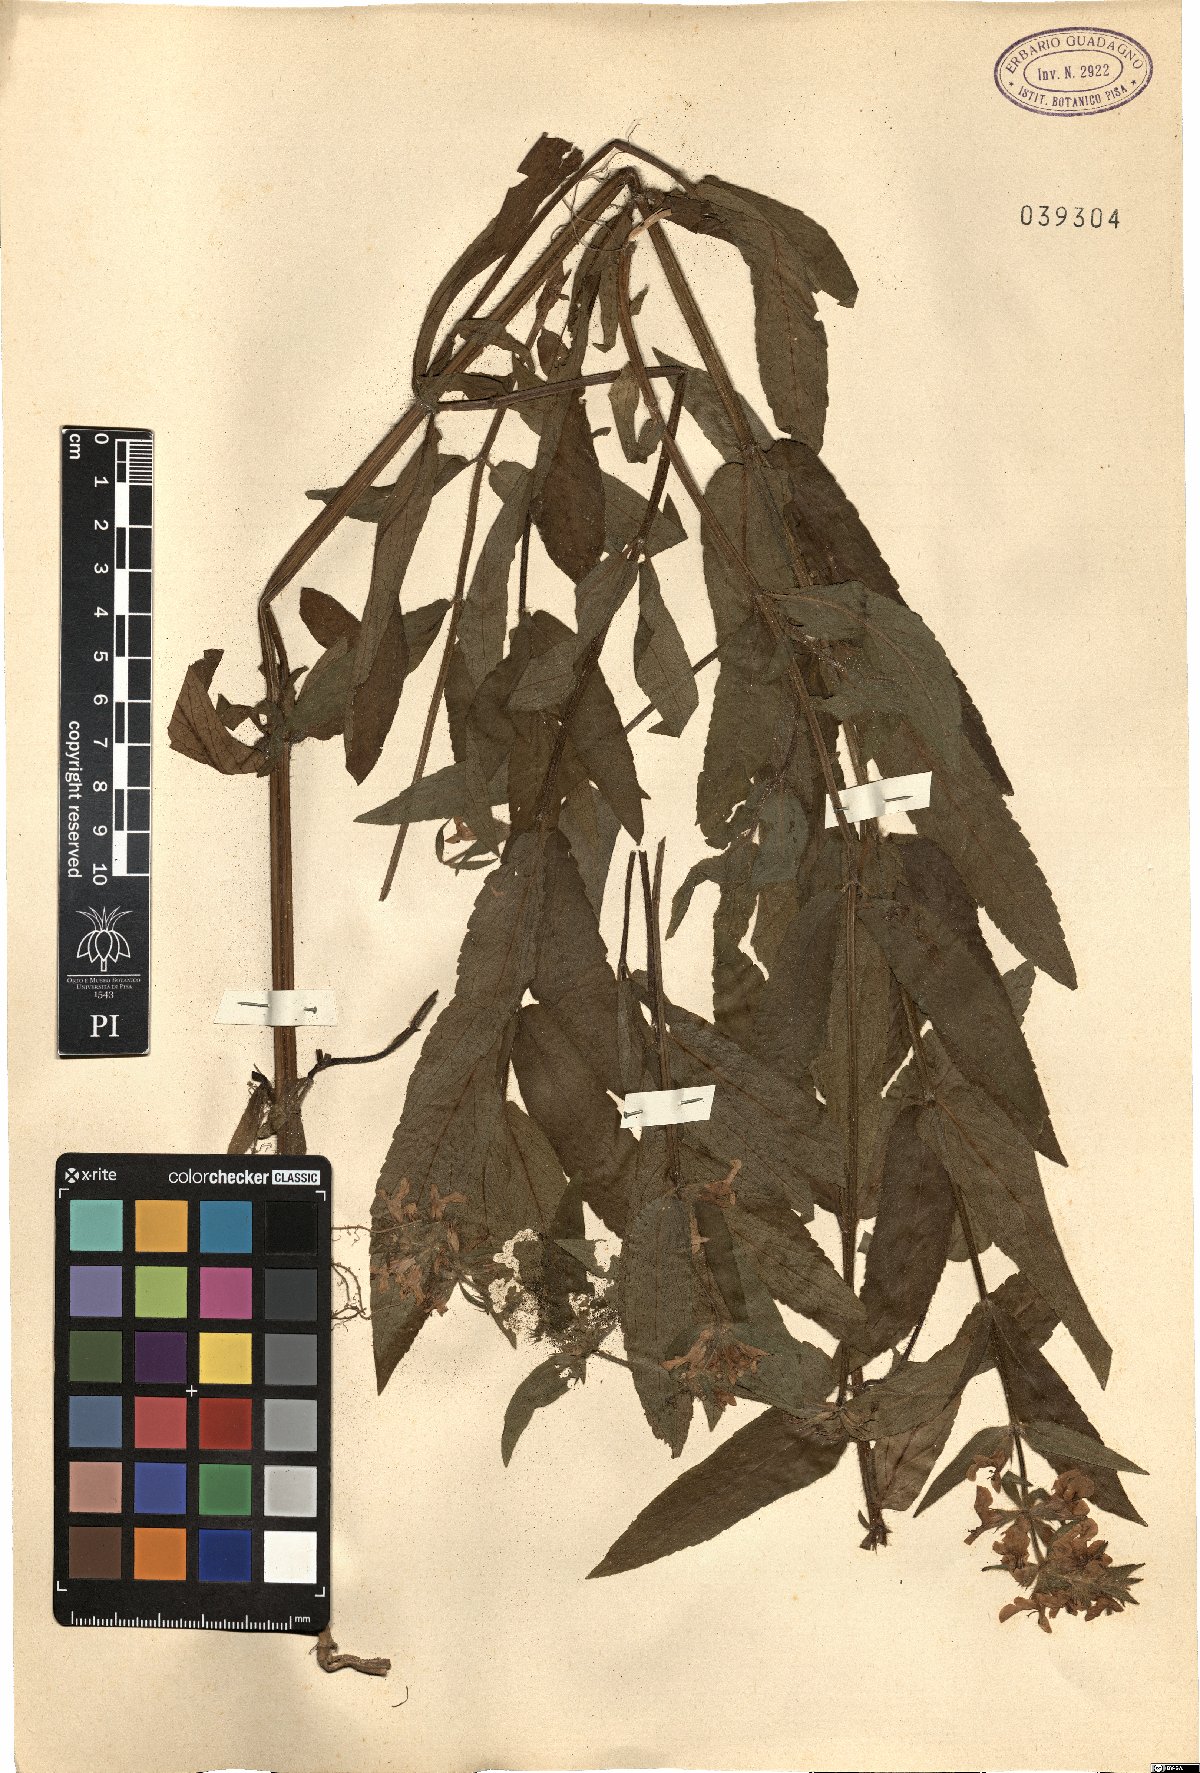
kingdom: Plantae
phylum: Tracheophyta
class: Magnoliopsida
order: Lamiales
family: Lamiaceae
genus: Salvia
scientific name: Salvia viridis
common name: Annual clary
